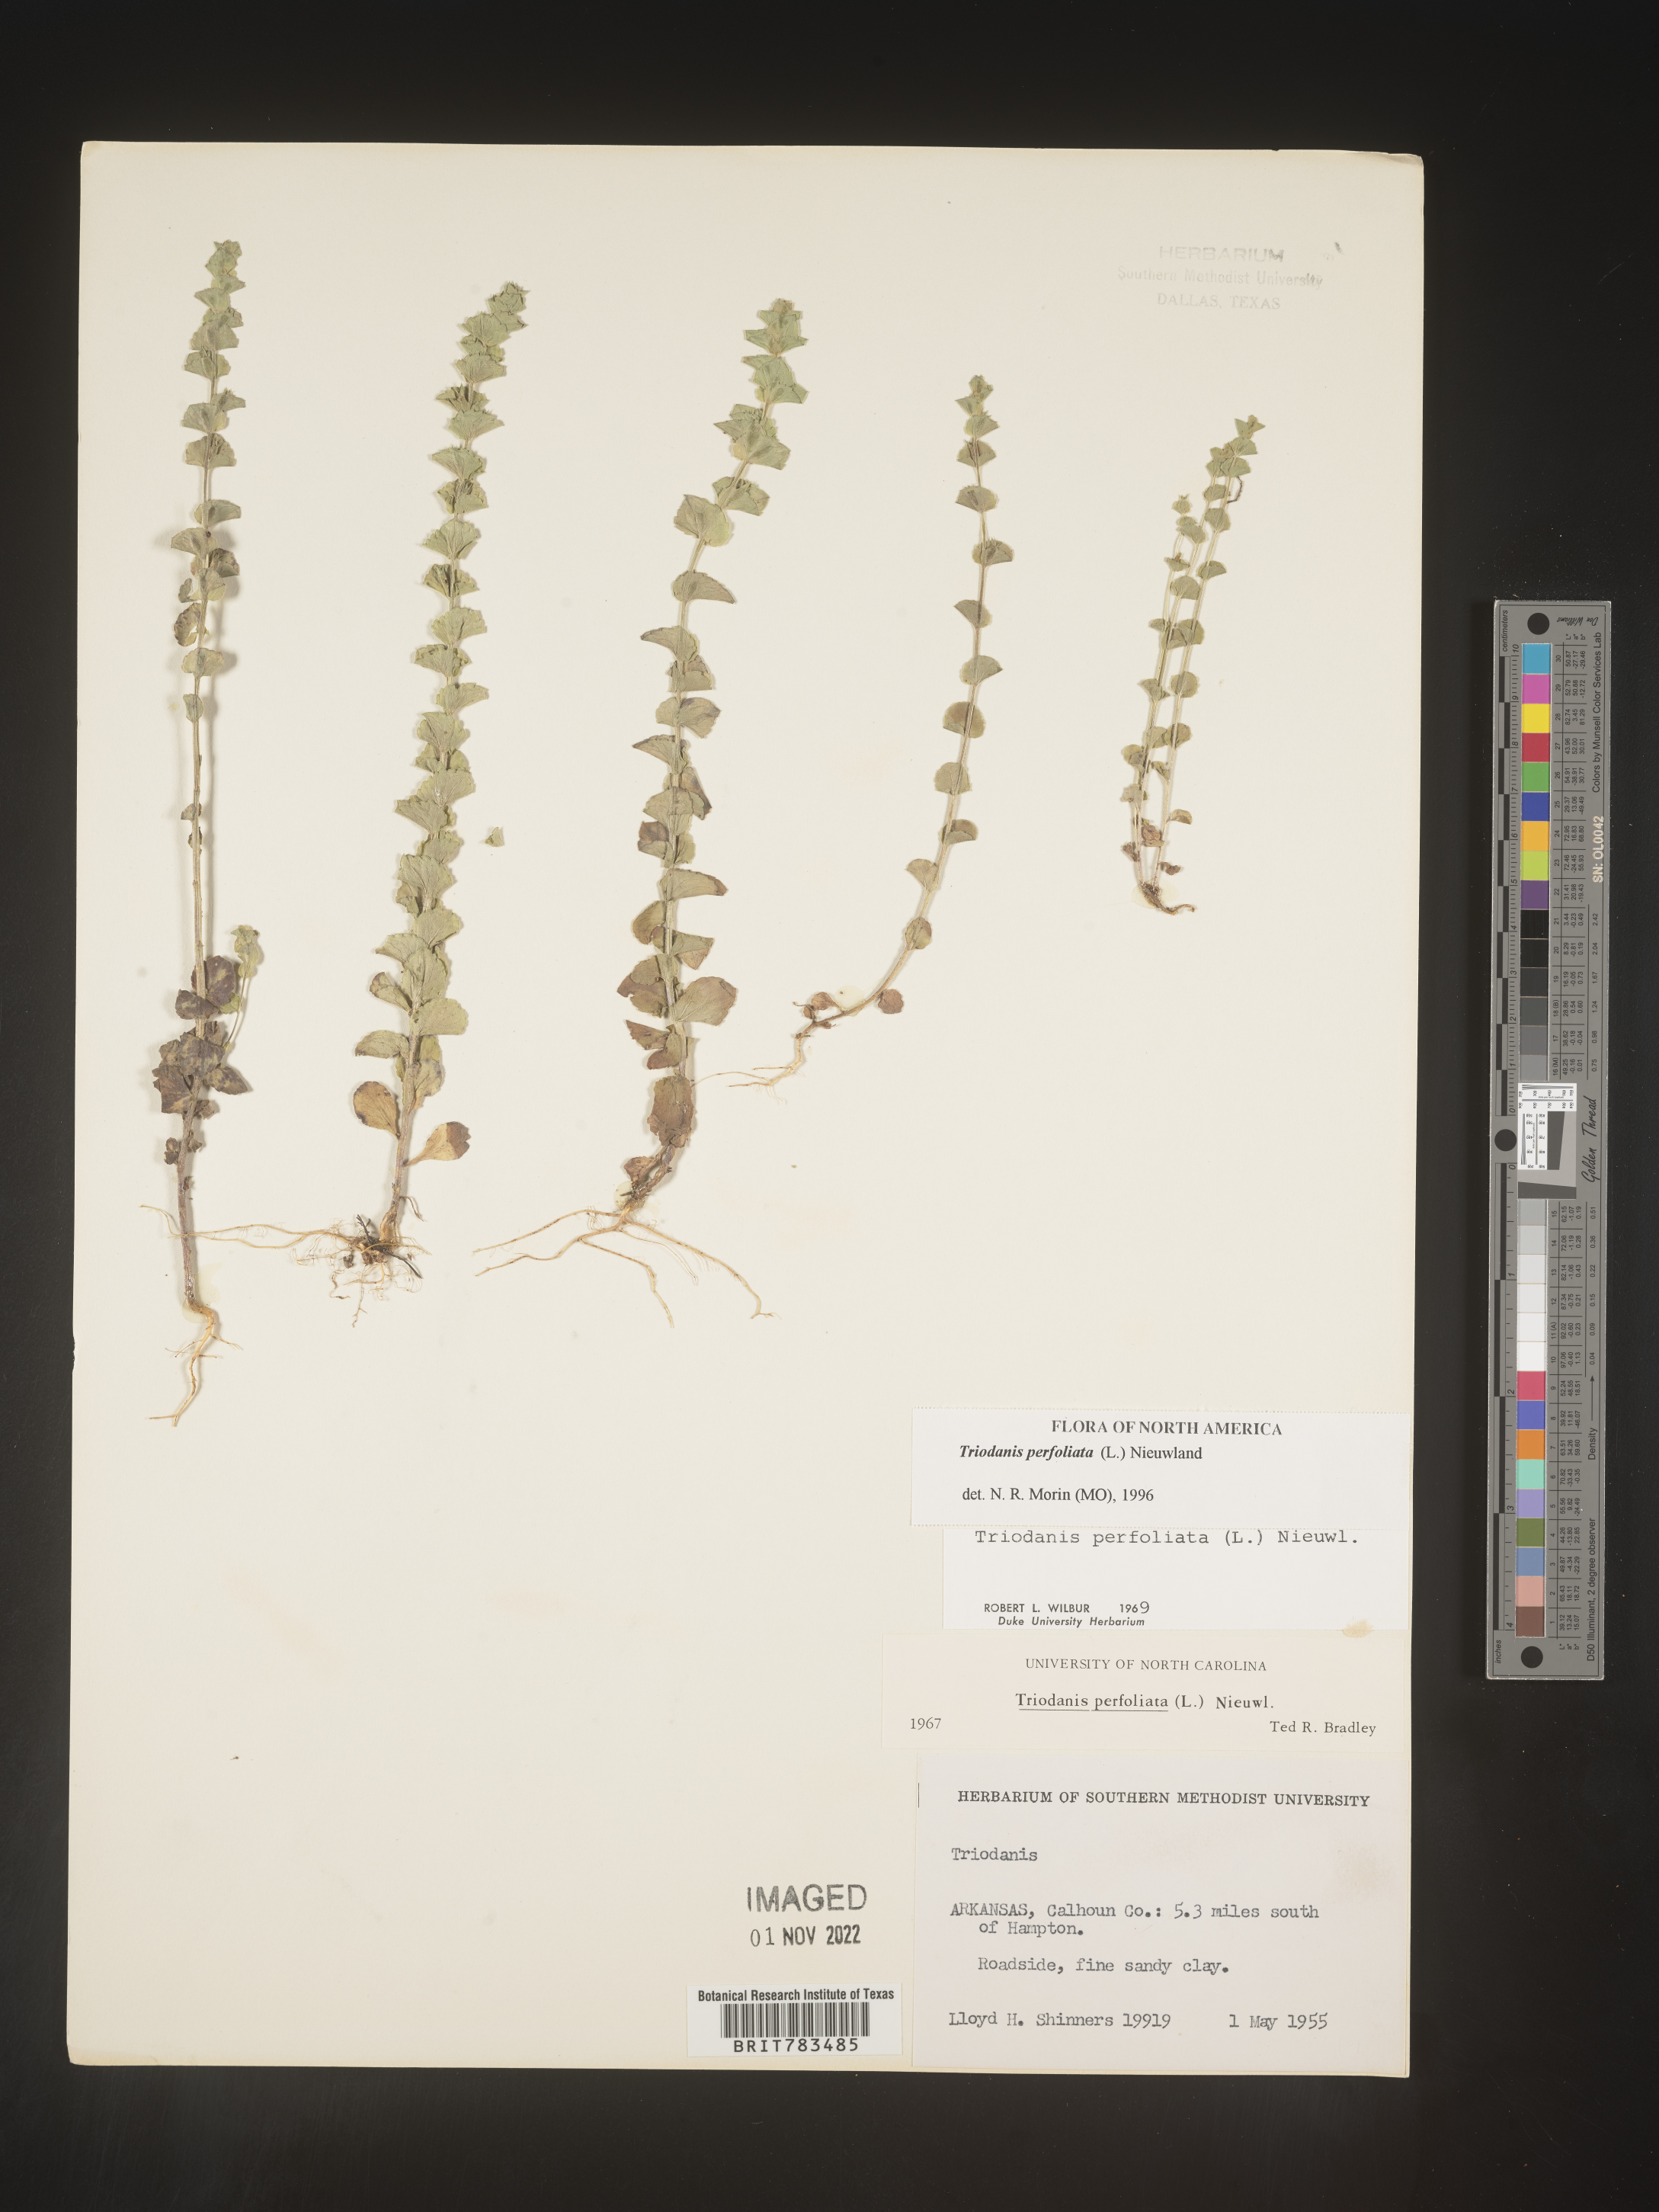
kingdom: Plantae
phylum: Tracheophyta
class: Magnoliopsida
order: Asterales
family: Campanulaceae
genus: Triodanis
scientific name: Triodanis perfoliata
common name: Clasping venus' looking-glass
